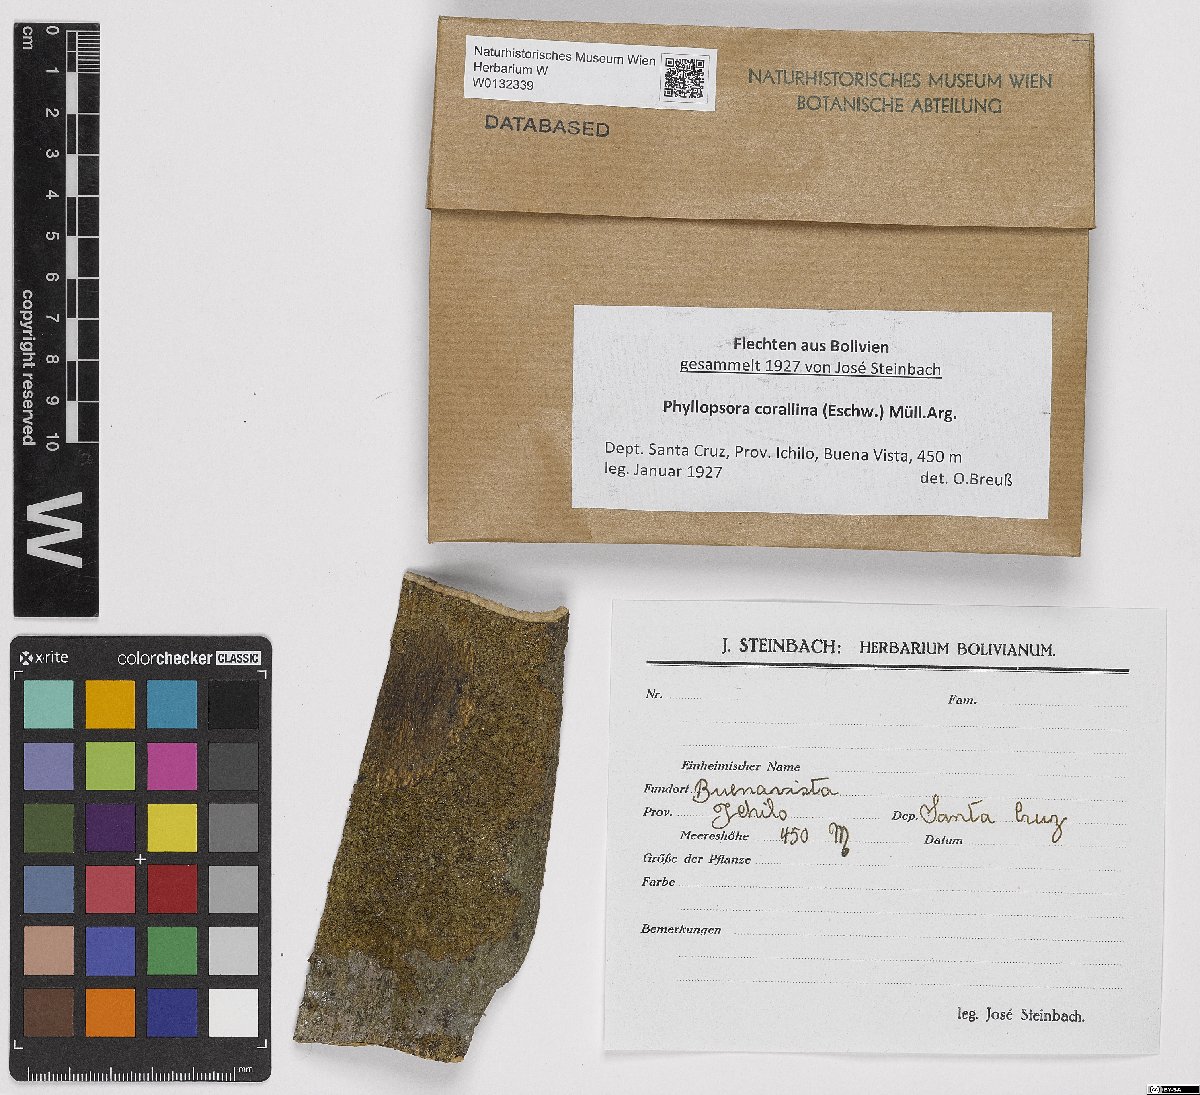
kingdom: Fungi
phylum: Ascomycota
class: Lecanoromycetes
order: Lecanorales
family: Ramalinaceae
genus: Phyllopsora
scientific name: Phyllopsora corallina
